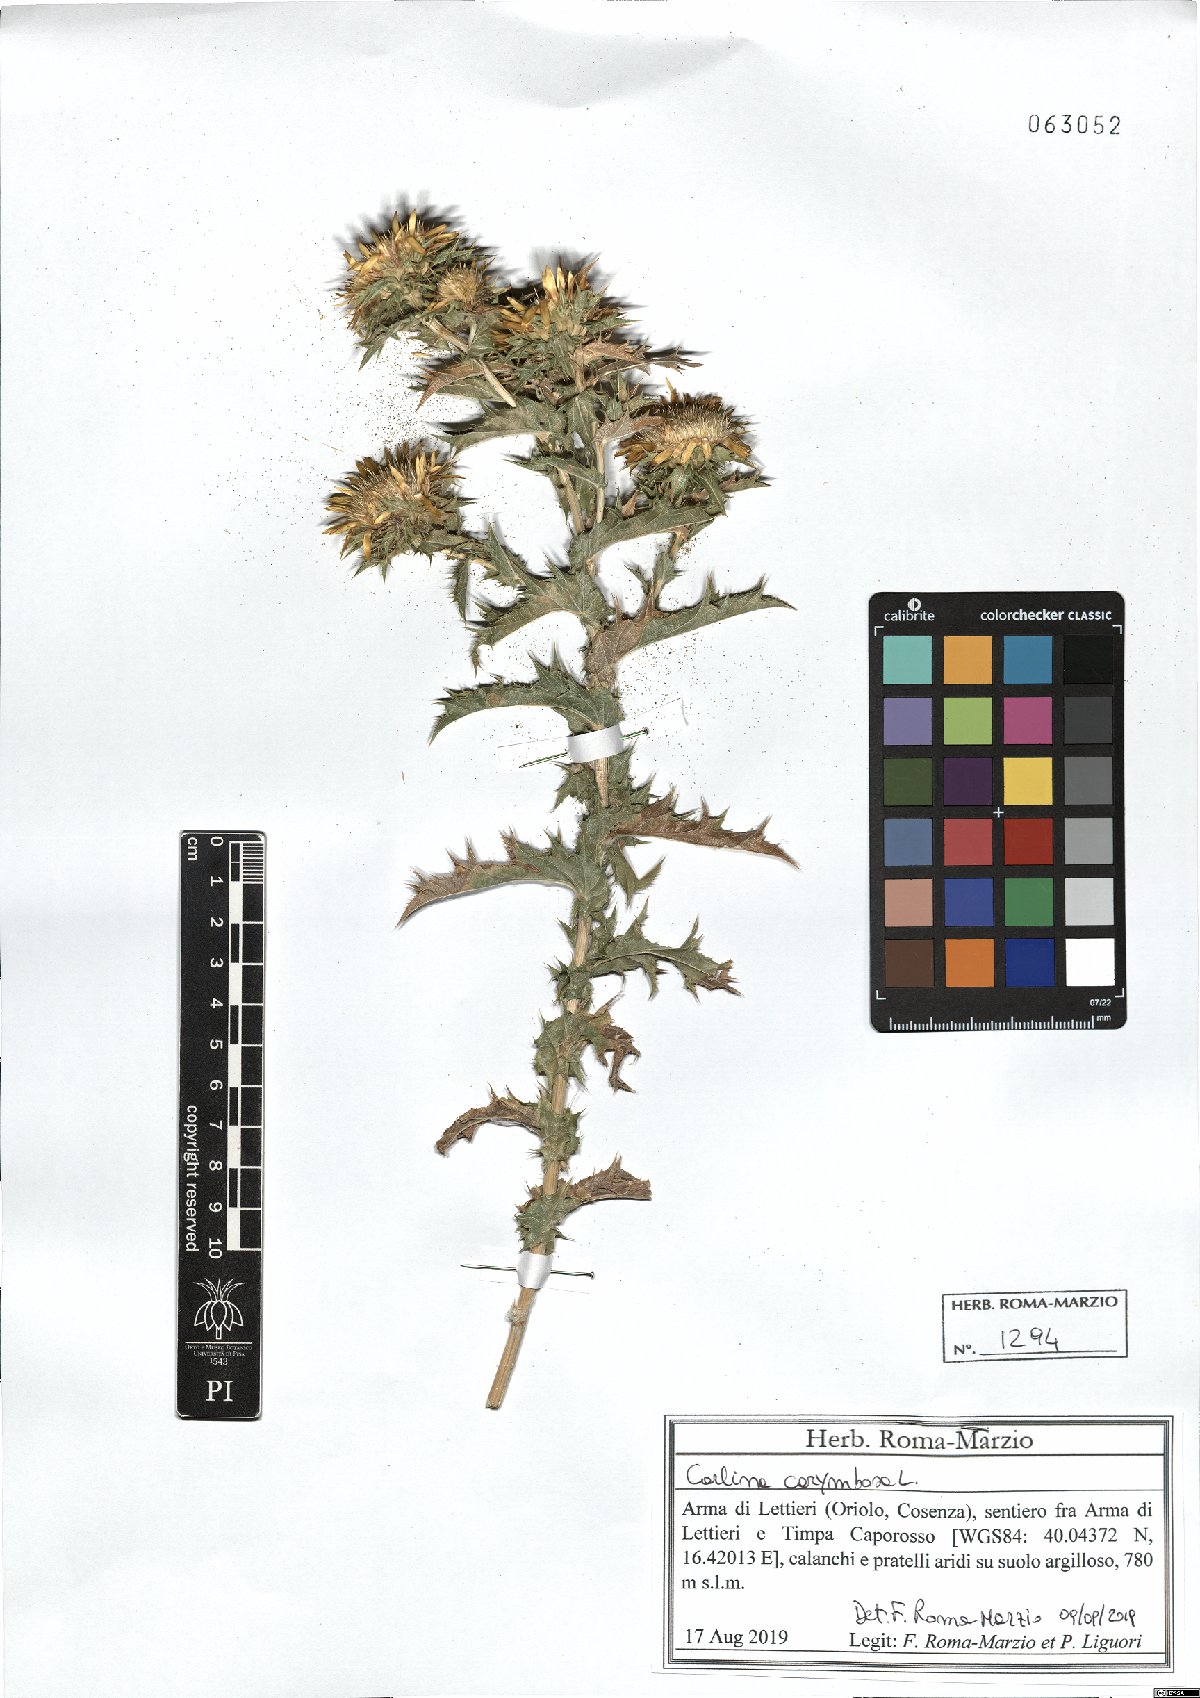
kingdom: Plantae
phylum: Tracheophyta
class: Magnoliopsida
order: Asterales
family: Asteraceae
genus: Carlina
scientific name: Carlina corymbosa
